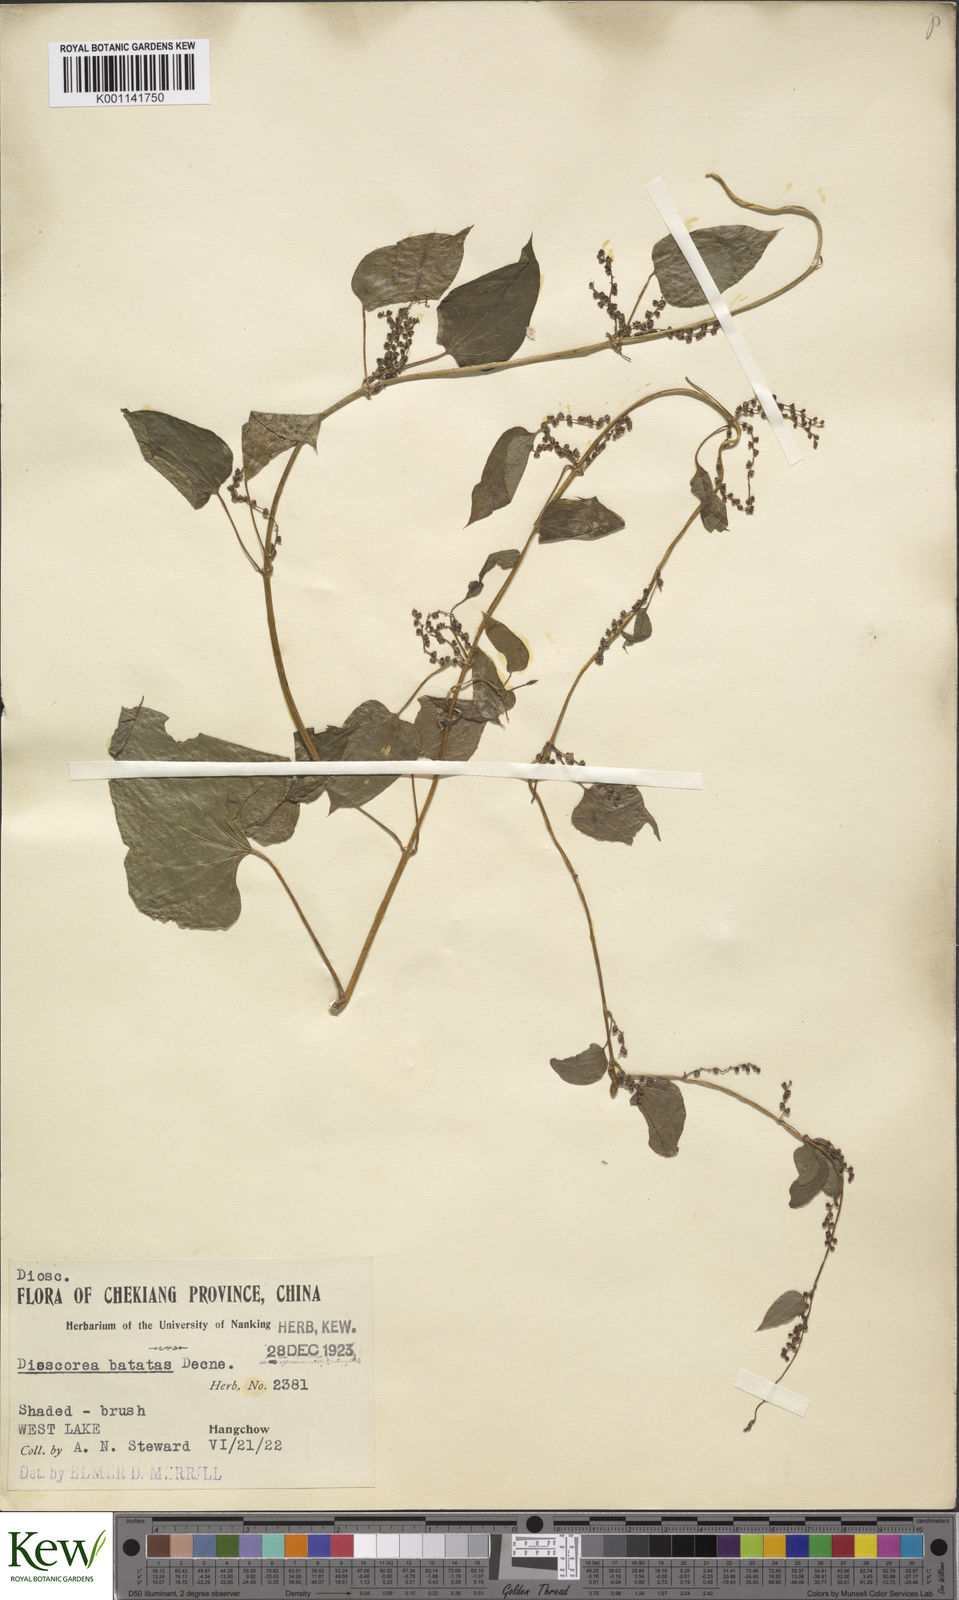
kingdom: Plantae
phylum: Tracheophyta
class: Liliopsida
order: Dioscoreales
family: Dioscoreaceae
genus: Dioscorea
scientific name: Dioscorea oppositifolia
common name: Chinese yam
